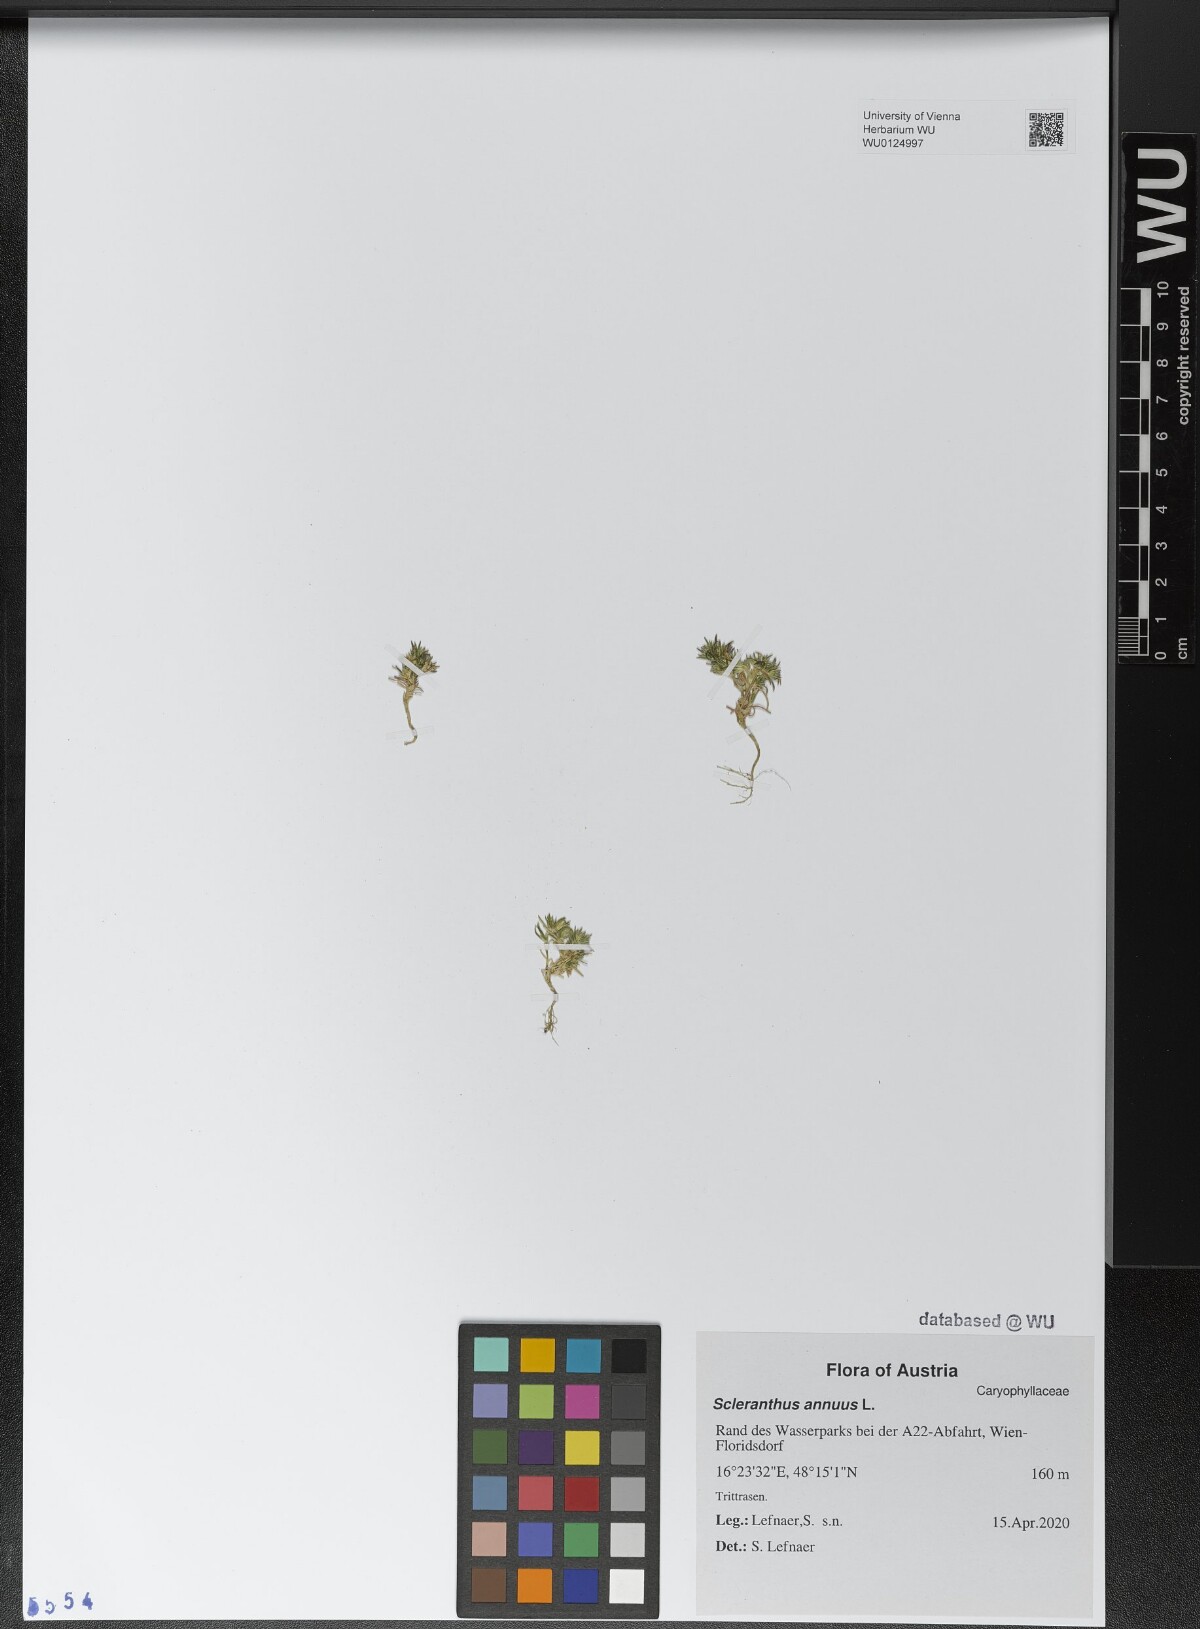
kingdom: Plantae
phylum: Tracheophyta
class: Magnoliopsida
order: Caryophyllales
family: Caryophyllaceae
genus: Scleranthus
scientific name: Scleranthus annuus
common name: Annual knawel
